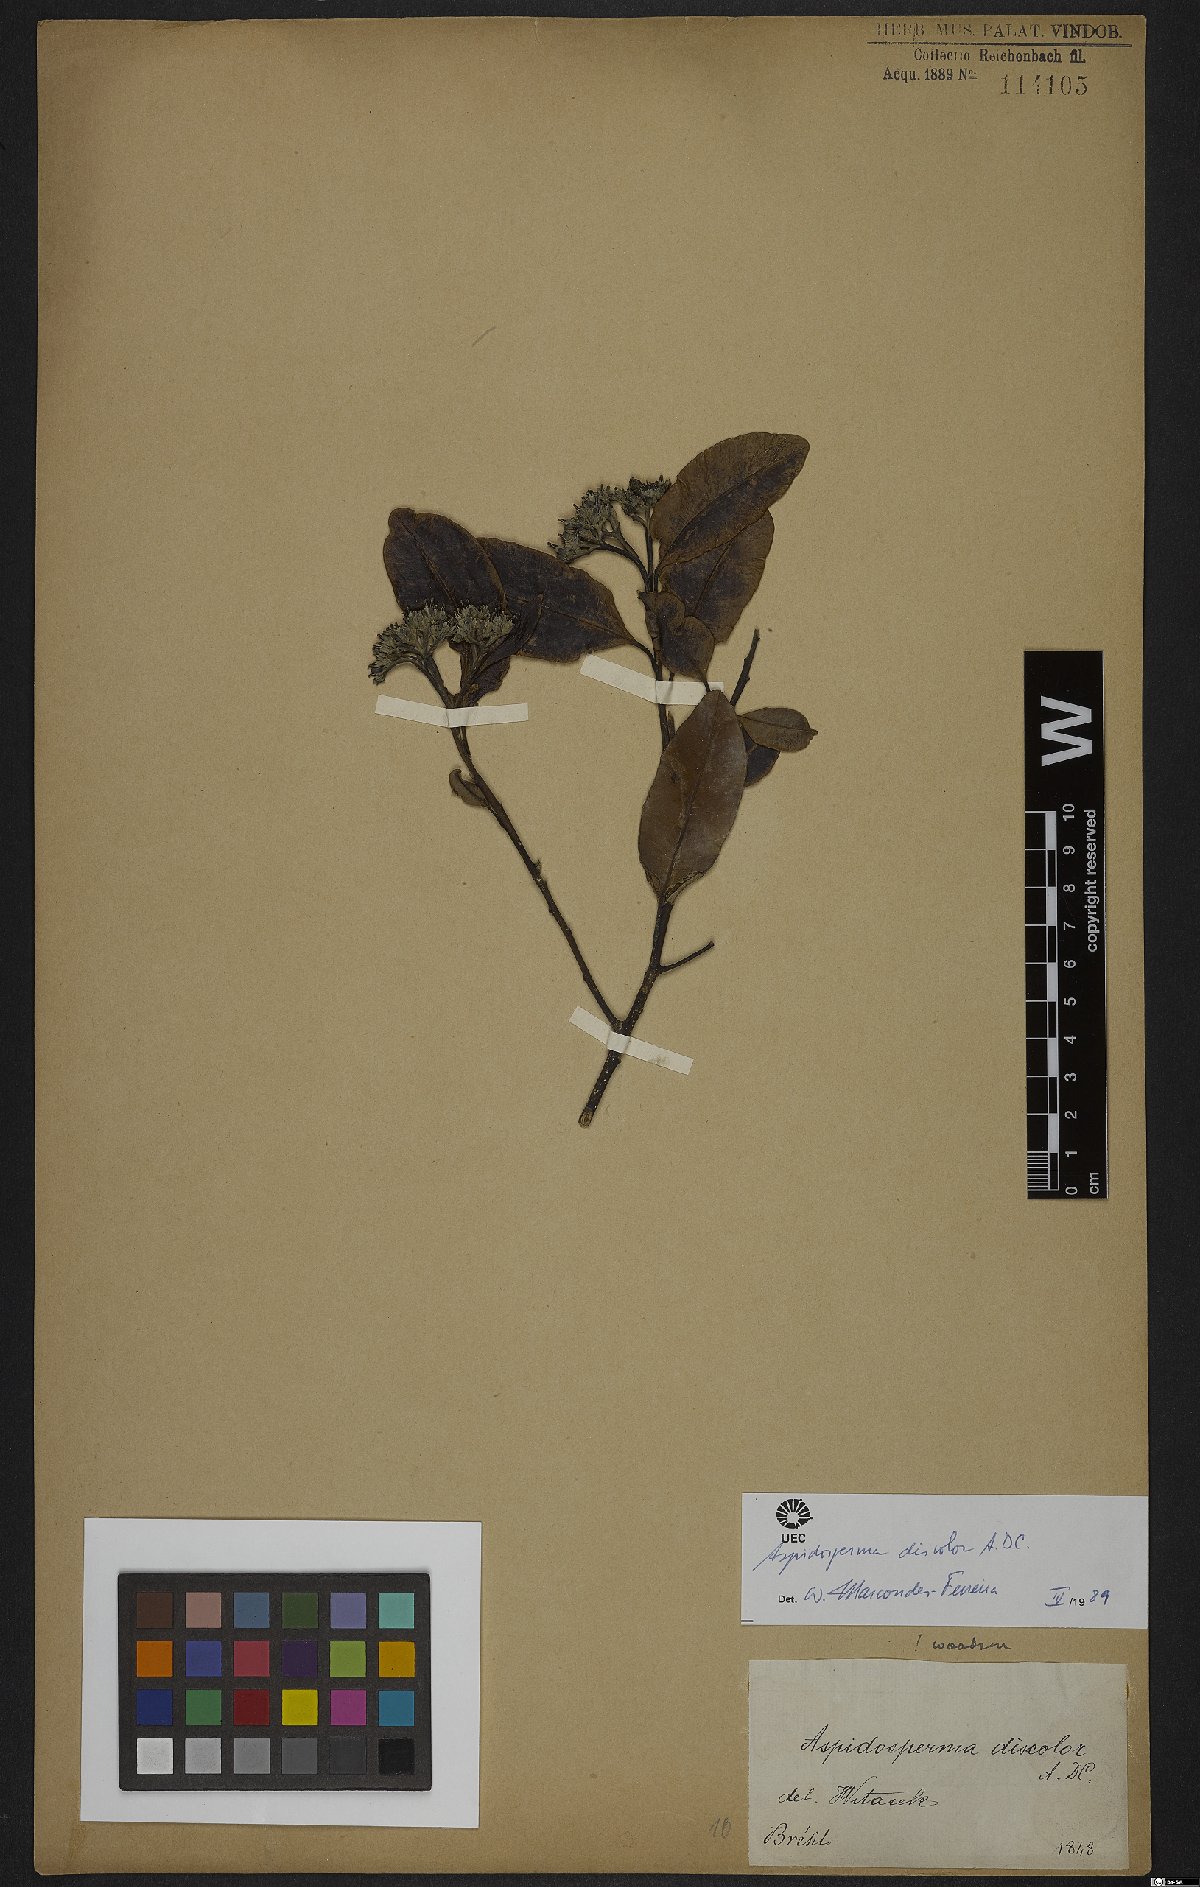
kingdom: Plantae
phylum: Tracheophyta
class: Magnoliopsida
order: Gentianales
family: Apocynaceae
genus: Aspidosperma
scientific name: Aspidosperma discolor
